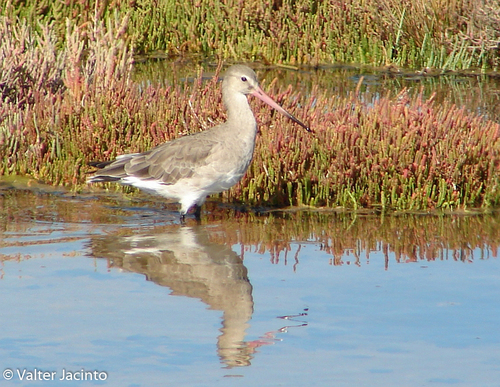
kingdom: Animalia
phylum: Chordata
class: Aves
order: Charadriiformes
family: Scolopacidae
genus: Limosa
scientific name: Limosa limosa
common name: Black-tailed godwit
